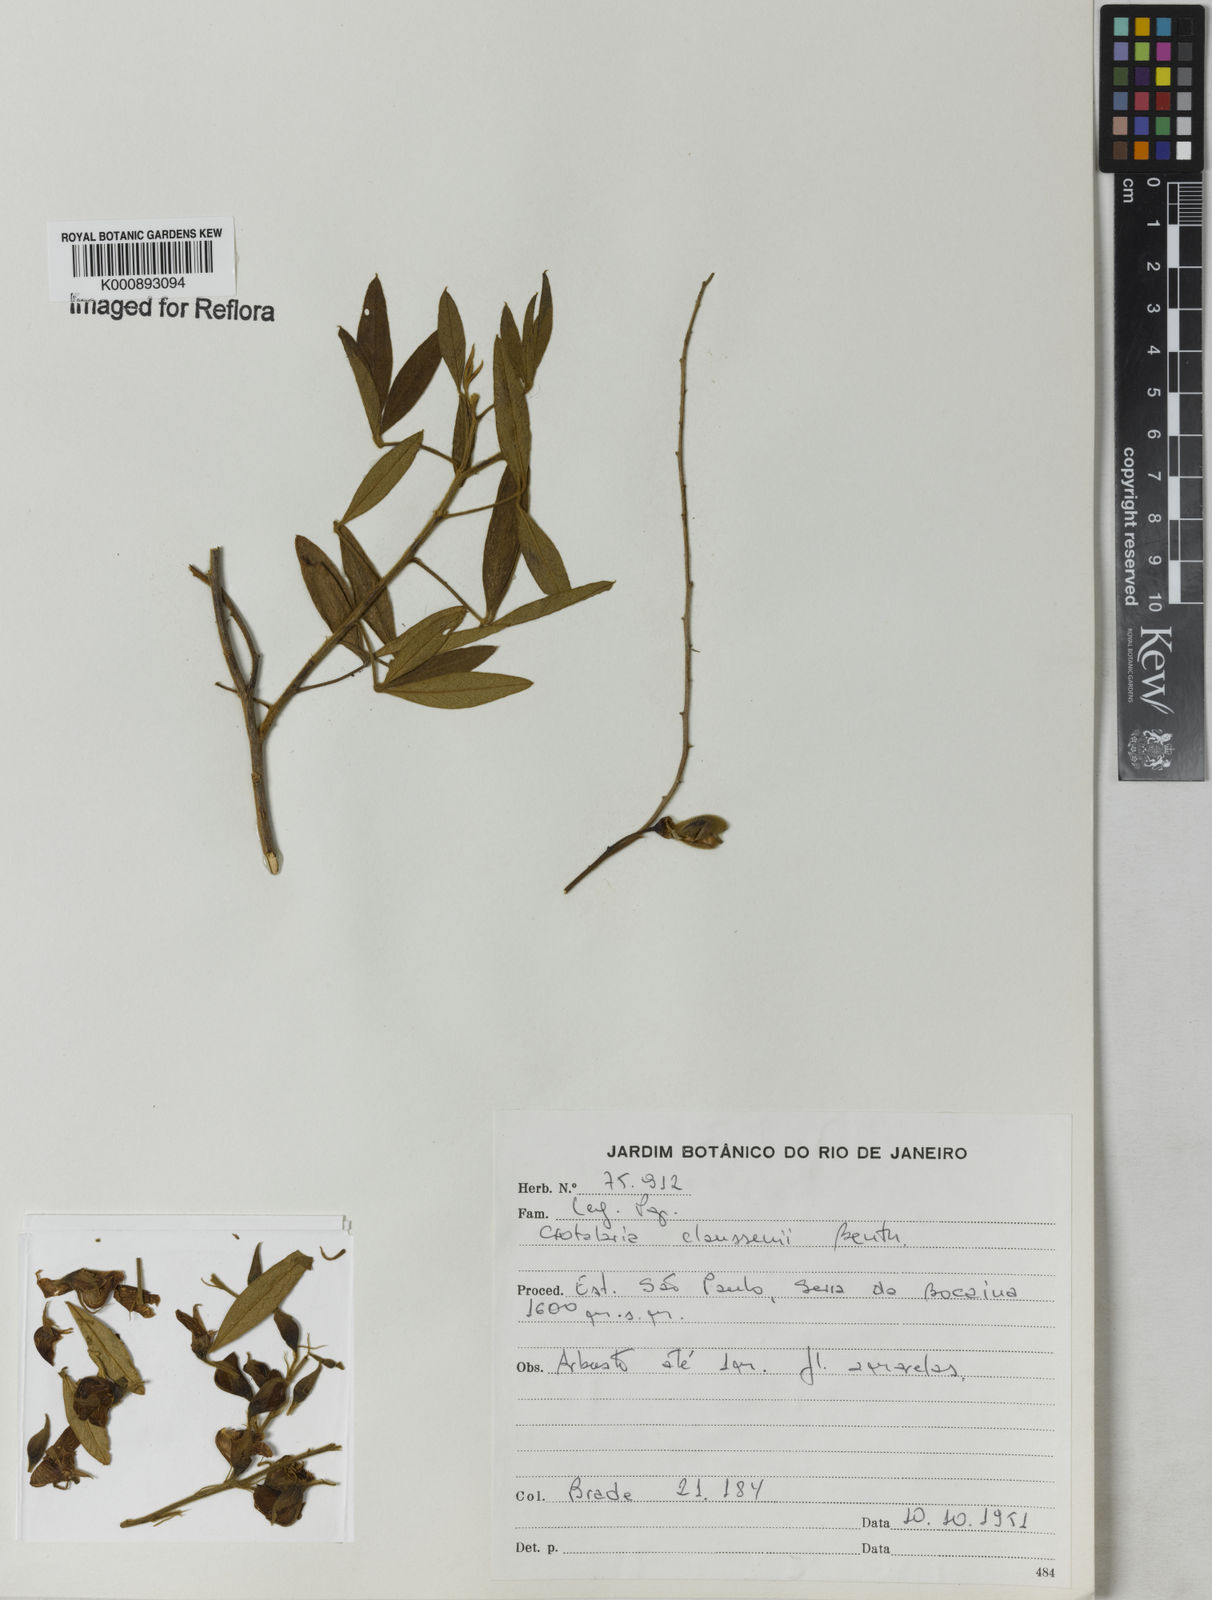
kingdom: Plantae
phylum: Tracheophyta
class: Magnoliopsida
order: Fabales
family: Fabaceae
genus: Crotalaria
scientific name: Crotalaria claussenii
